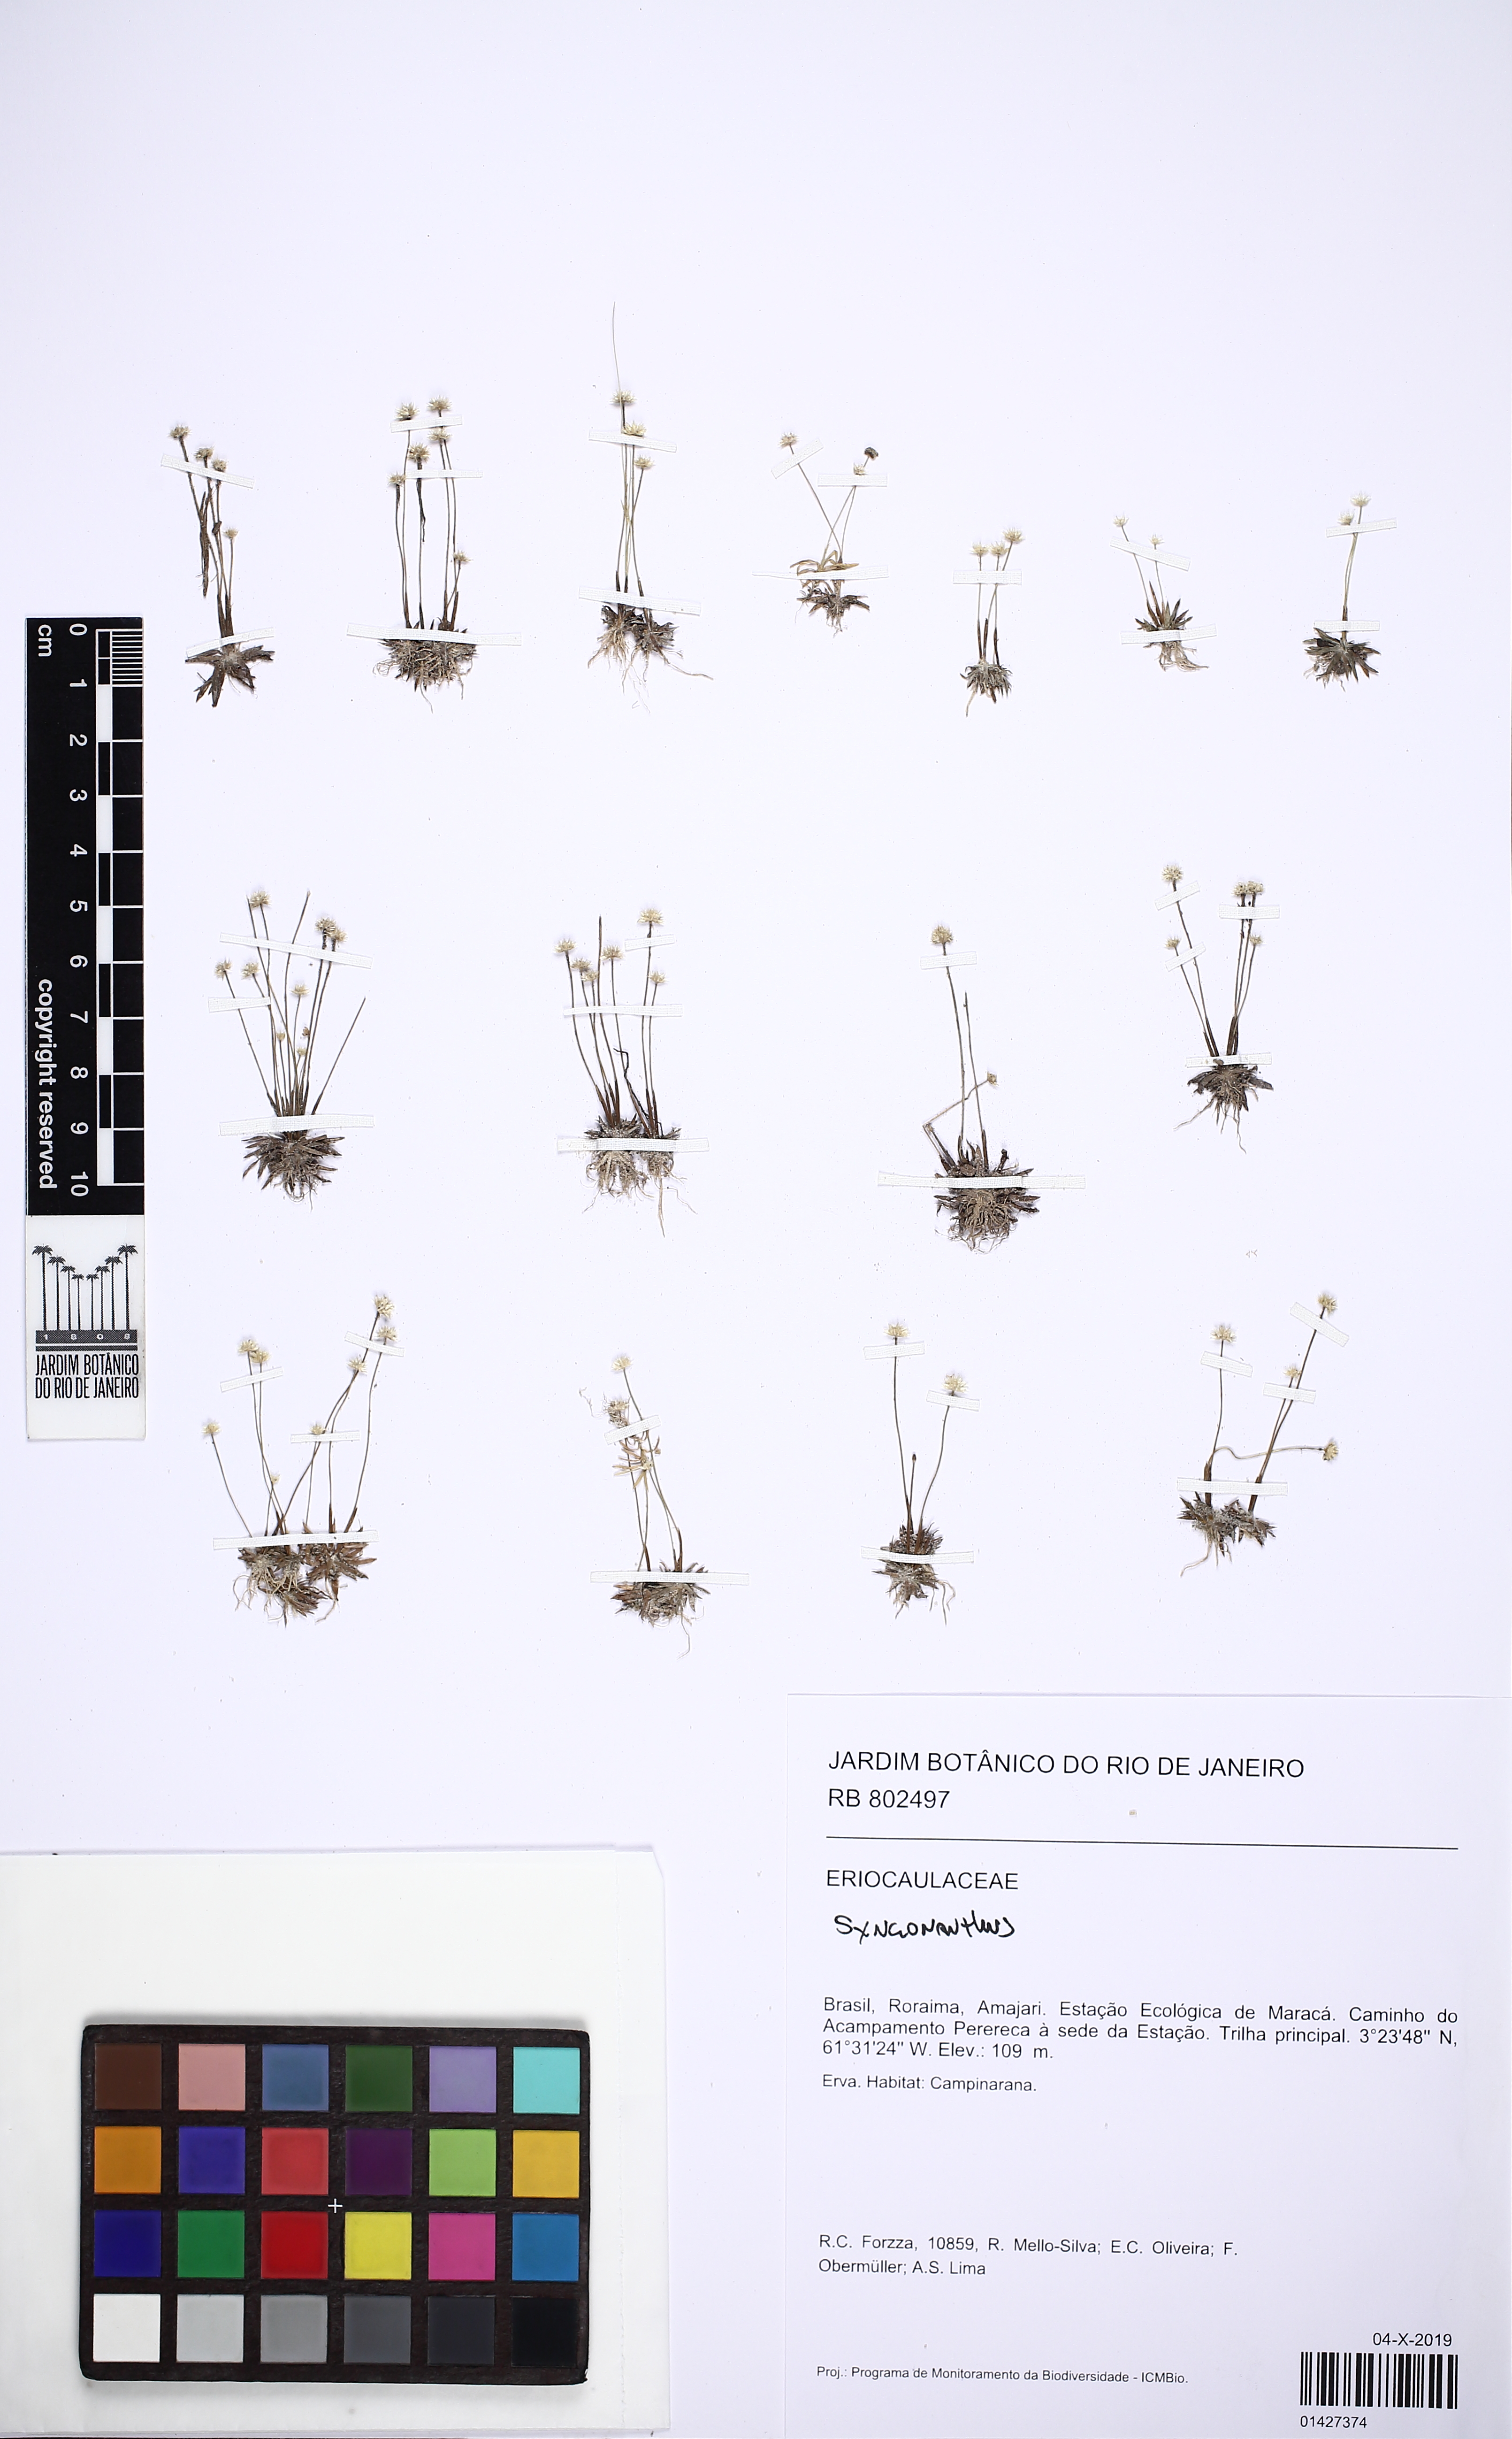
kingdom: Plantae
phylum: Tracheophyta
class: Liliopsida
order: Poales
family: Eriocaulaceae
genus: Syngonanthus
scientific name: Syngonanthus
